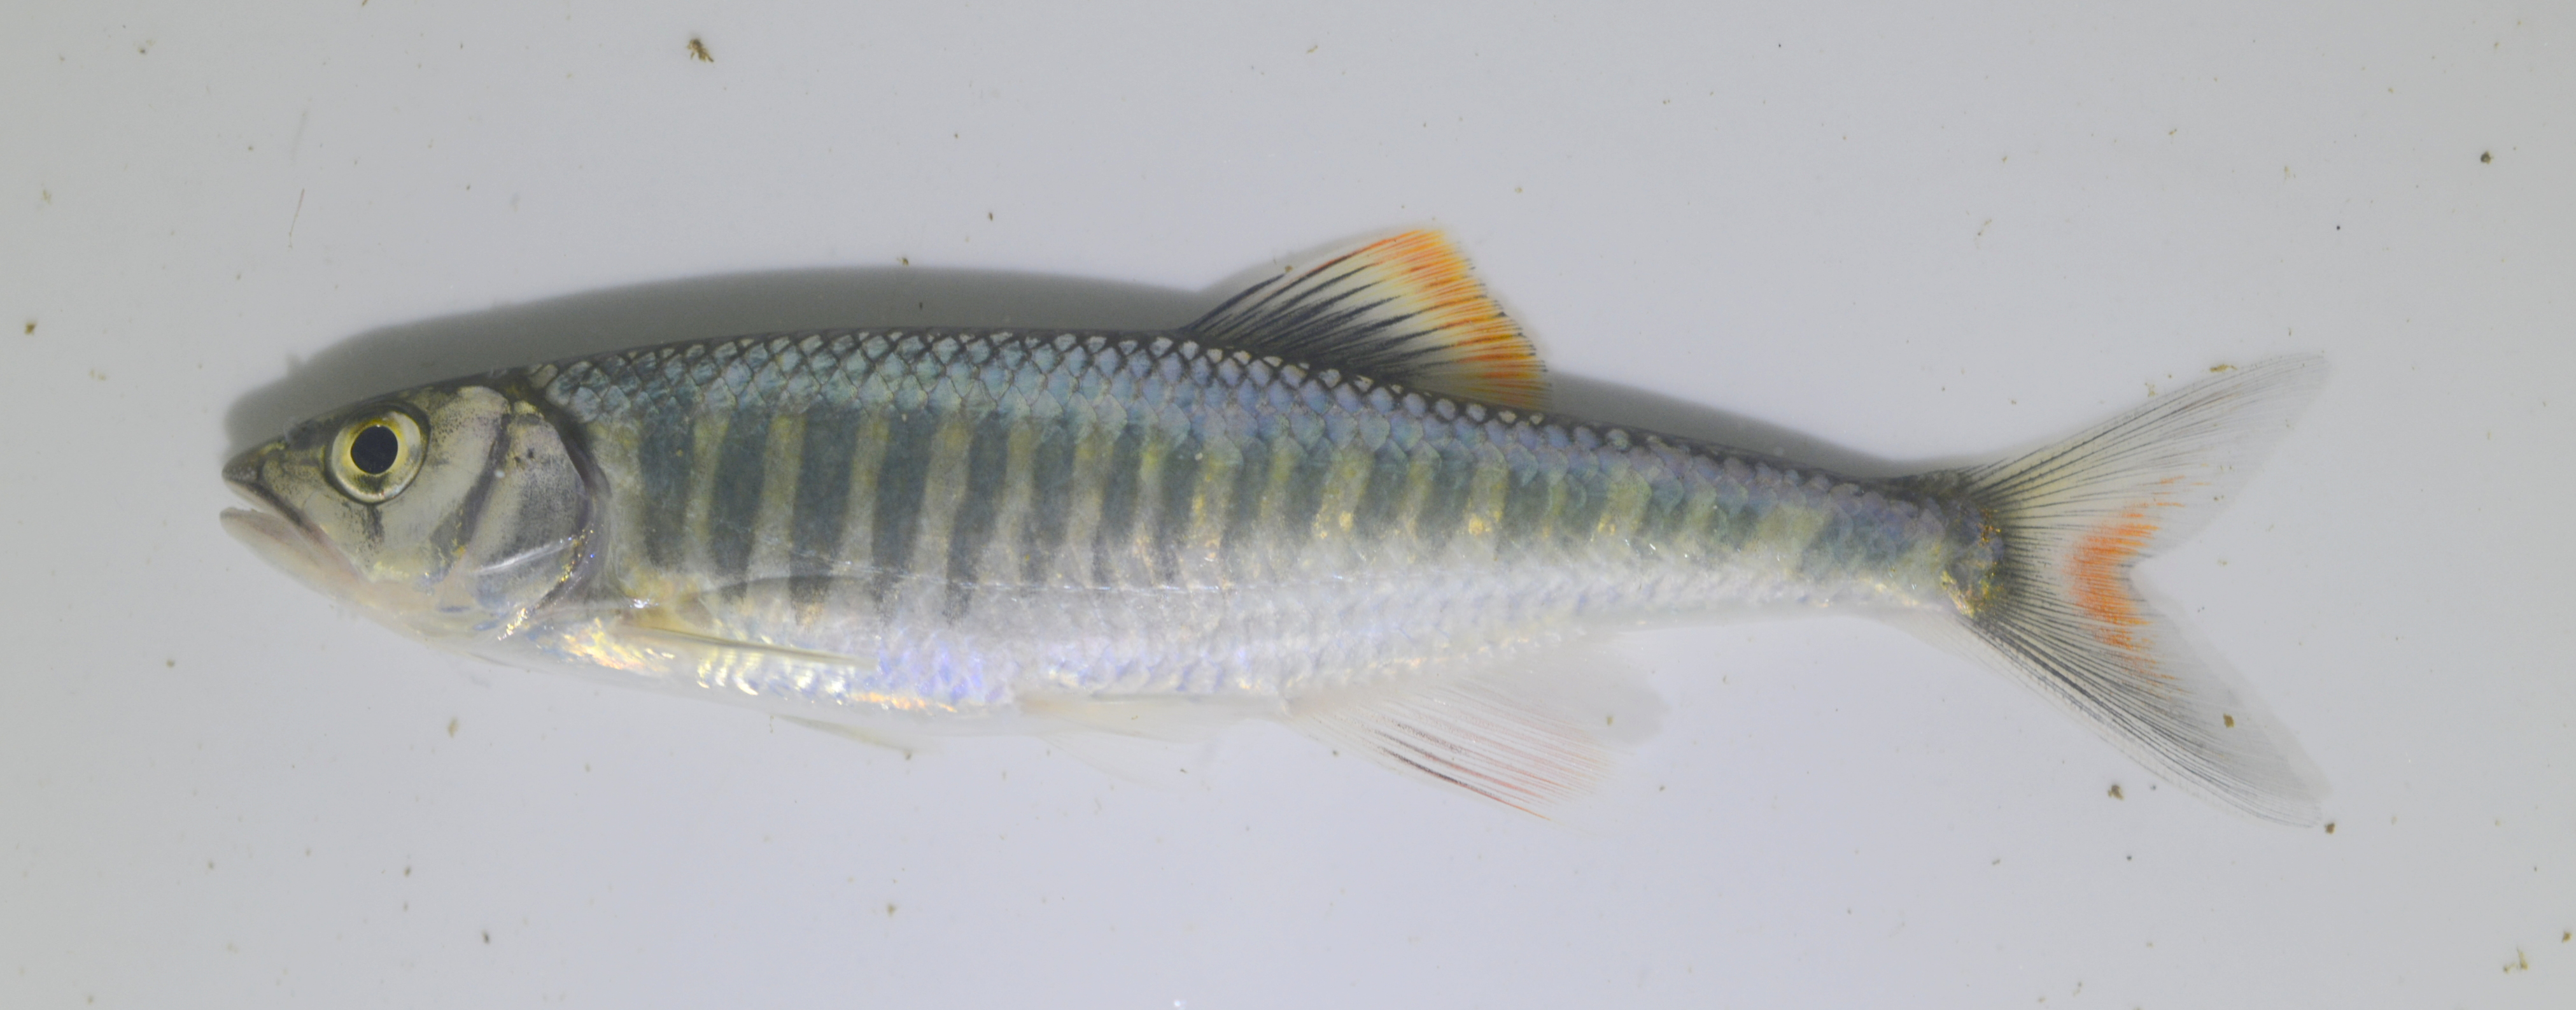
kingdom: Animalia
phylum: Chordata
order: Cypriniformes
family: Cyprinidae
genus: Opsaridium
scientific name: Opsaridium zambezense
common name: Barred minnow
